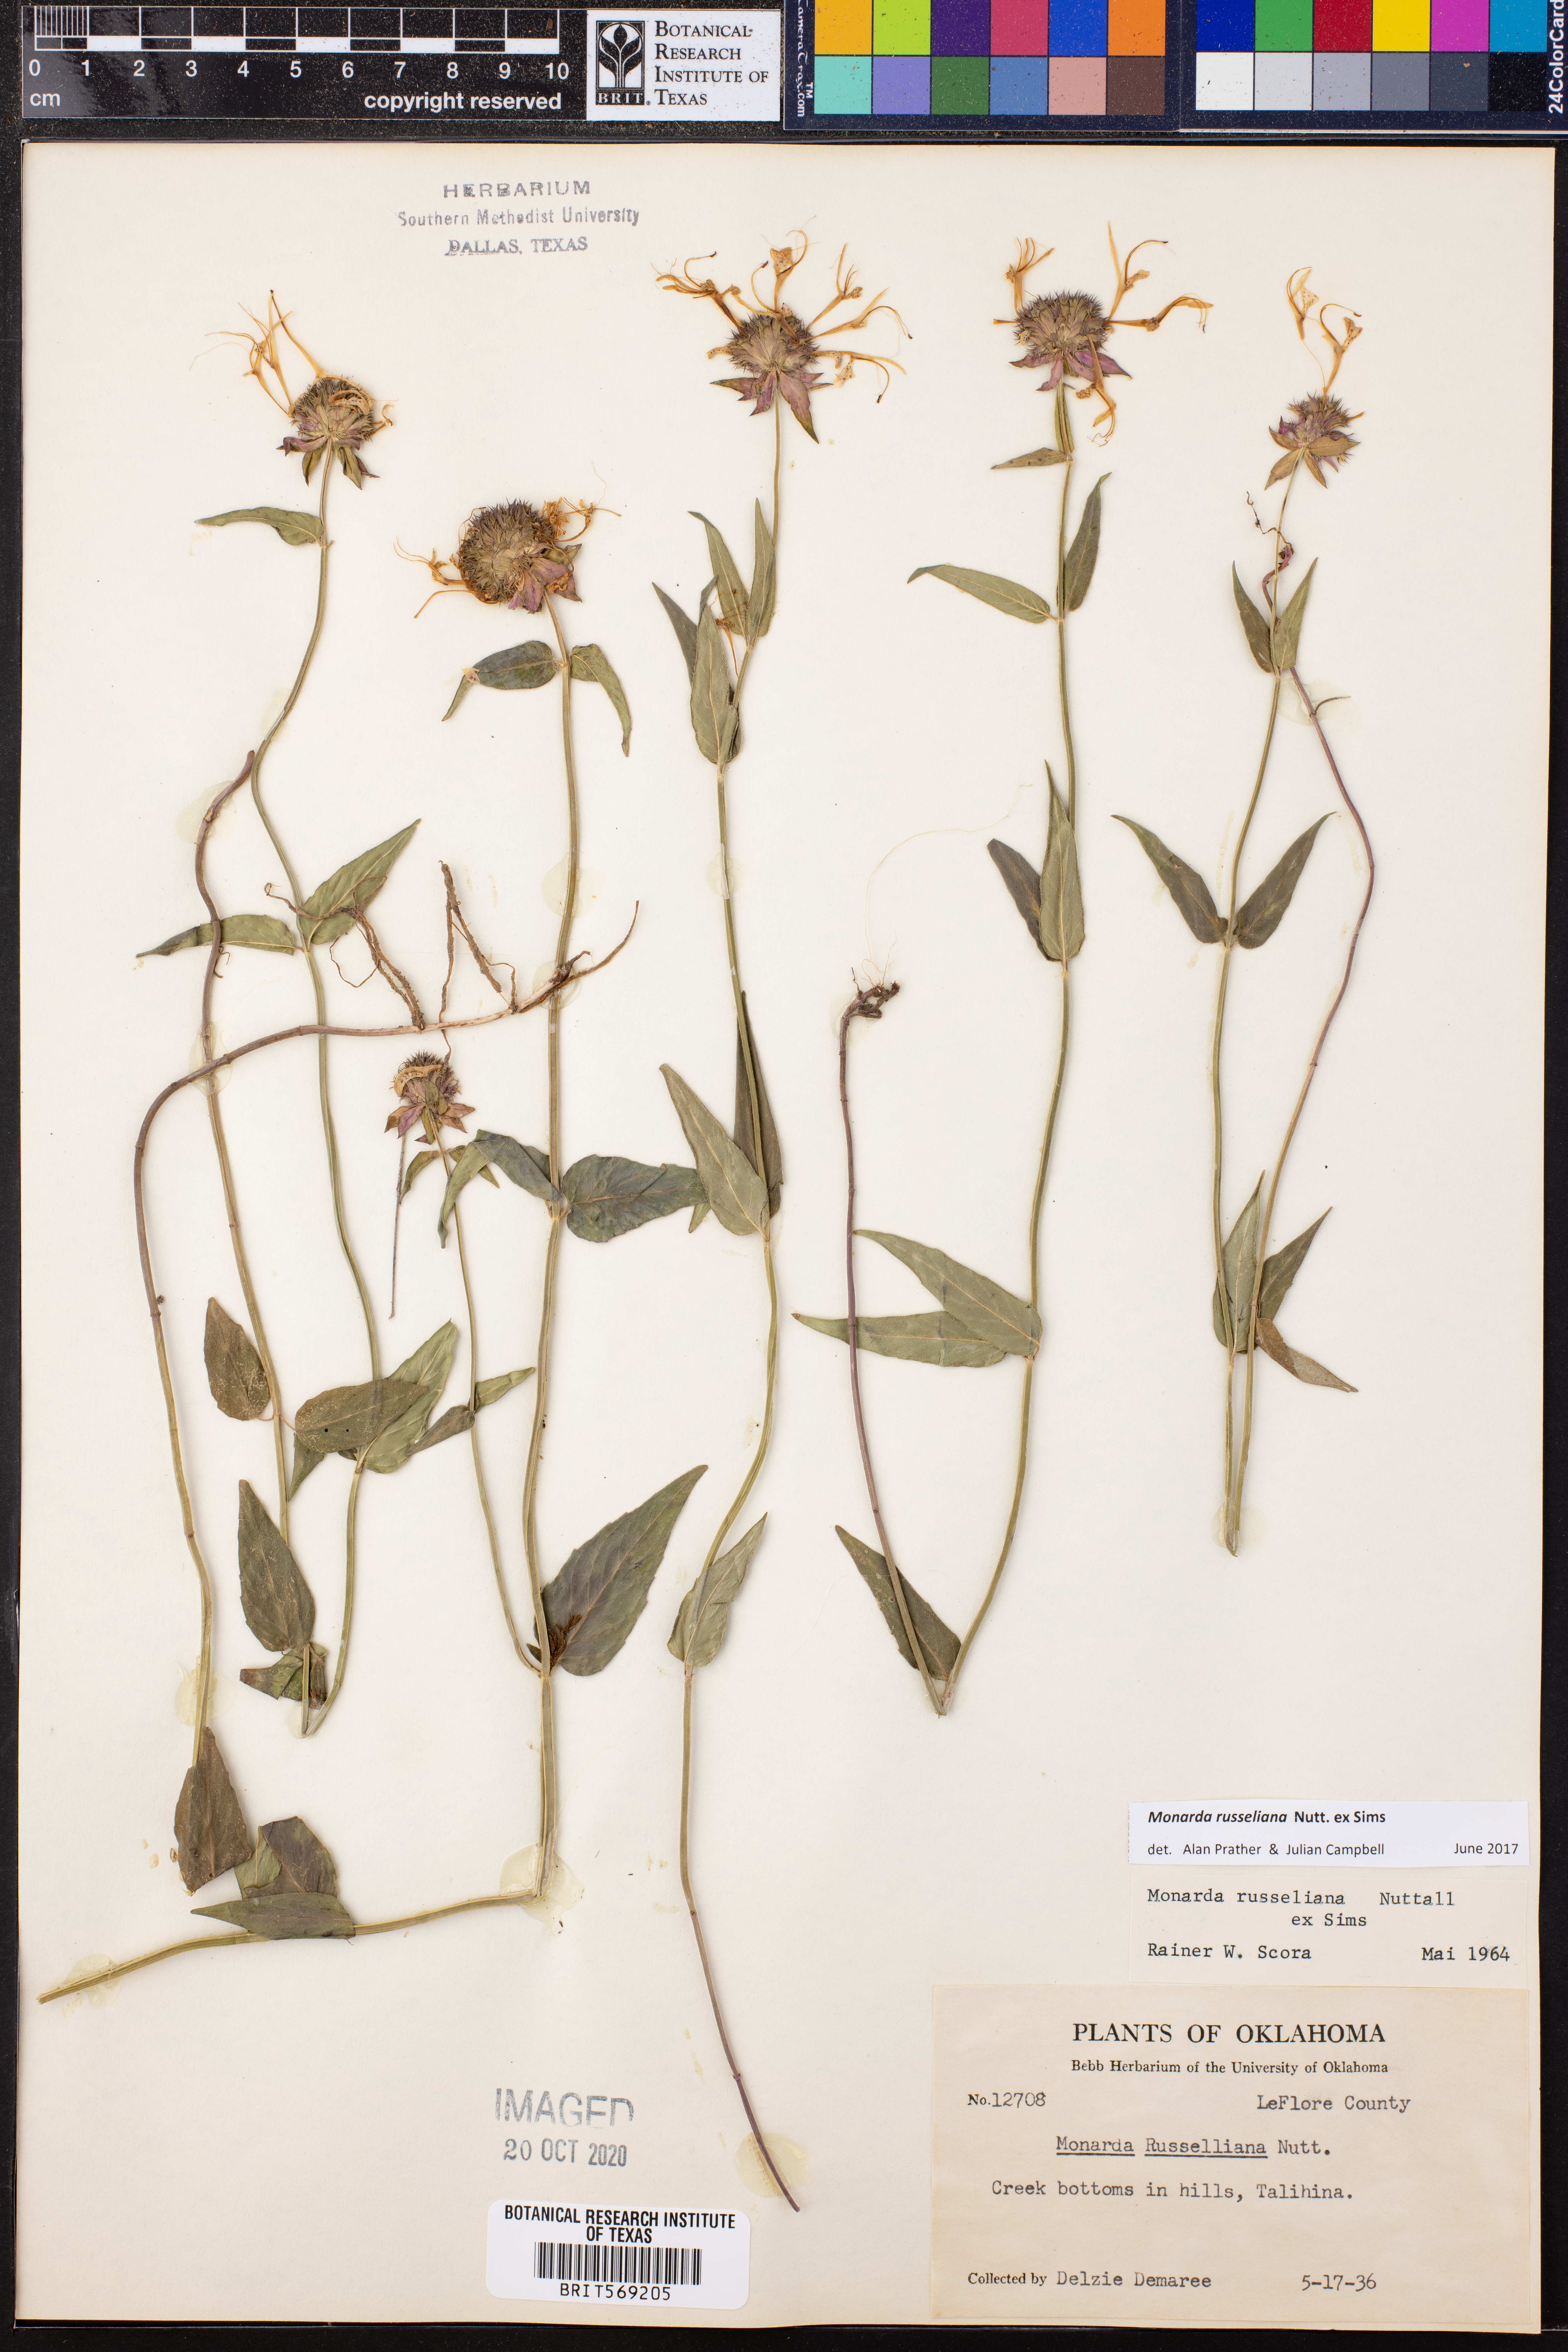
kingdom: Plantae
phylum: Tracheophyta
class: Magnoliopsida
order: Lamiales
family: Lamiaceae
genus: Monarda
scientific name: Monarda russeliana
